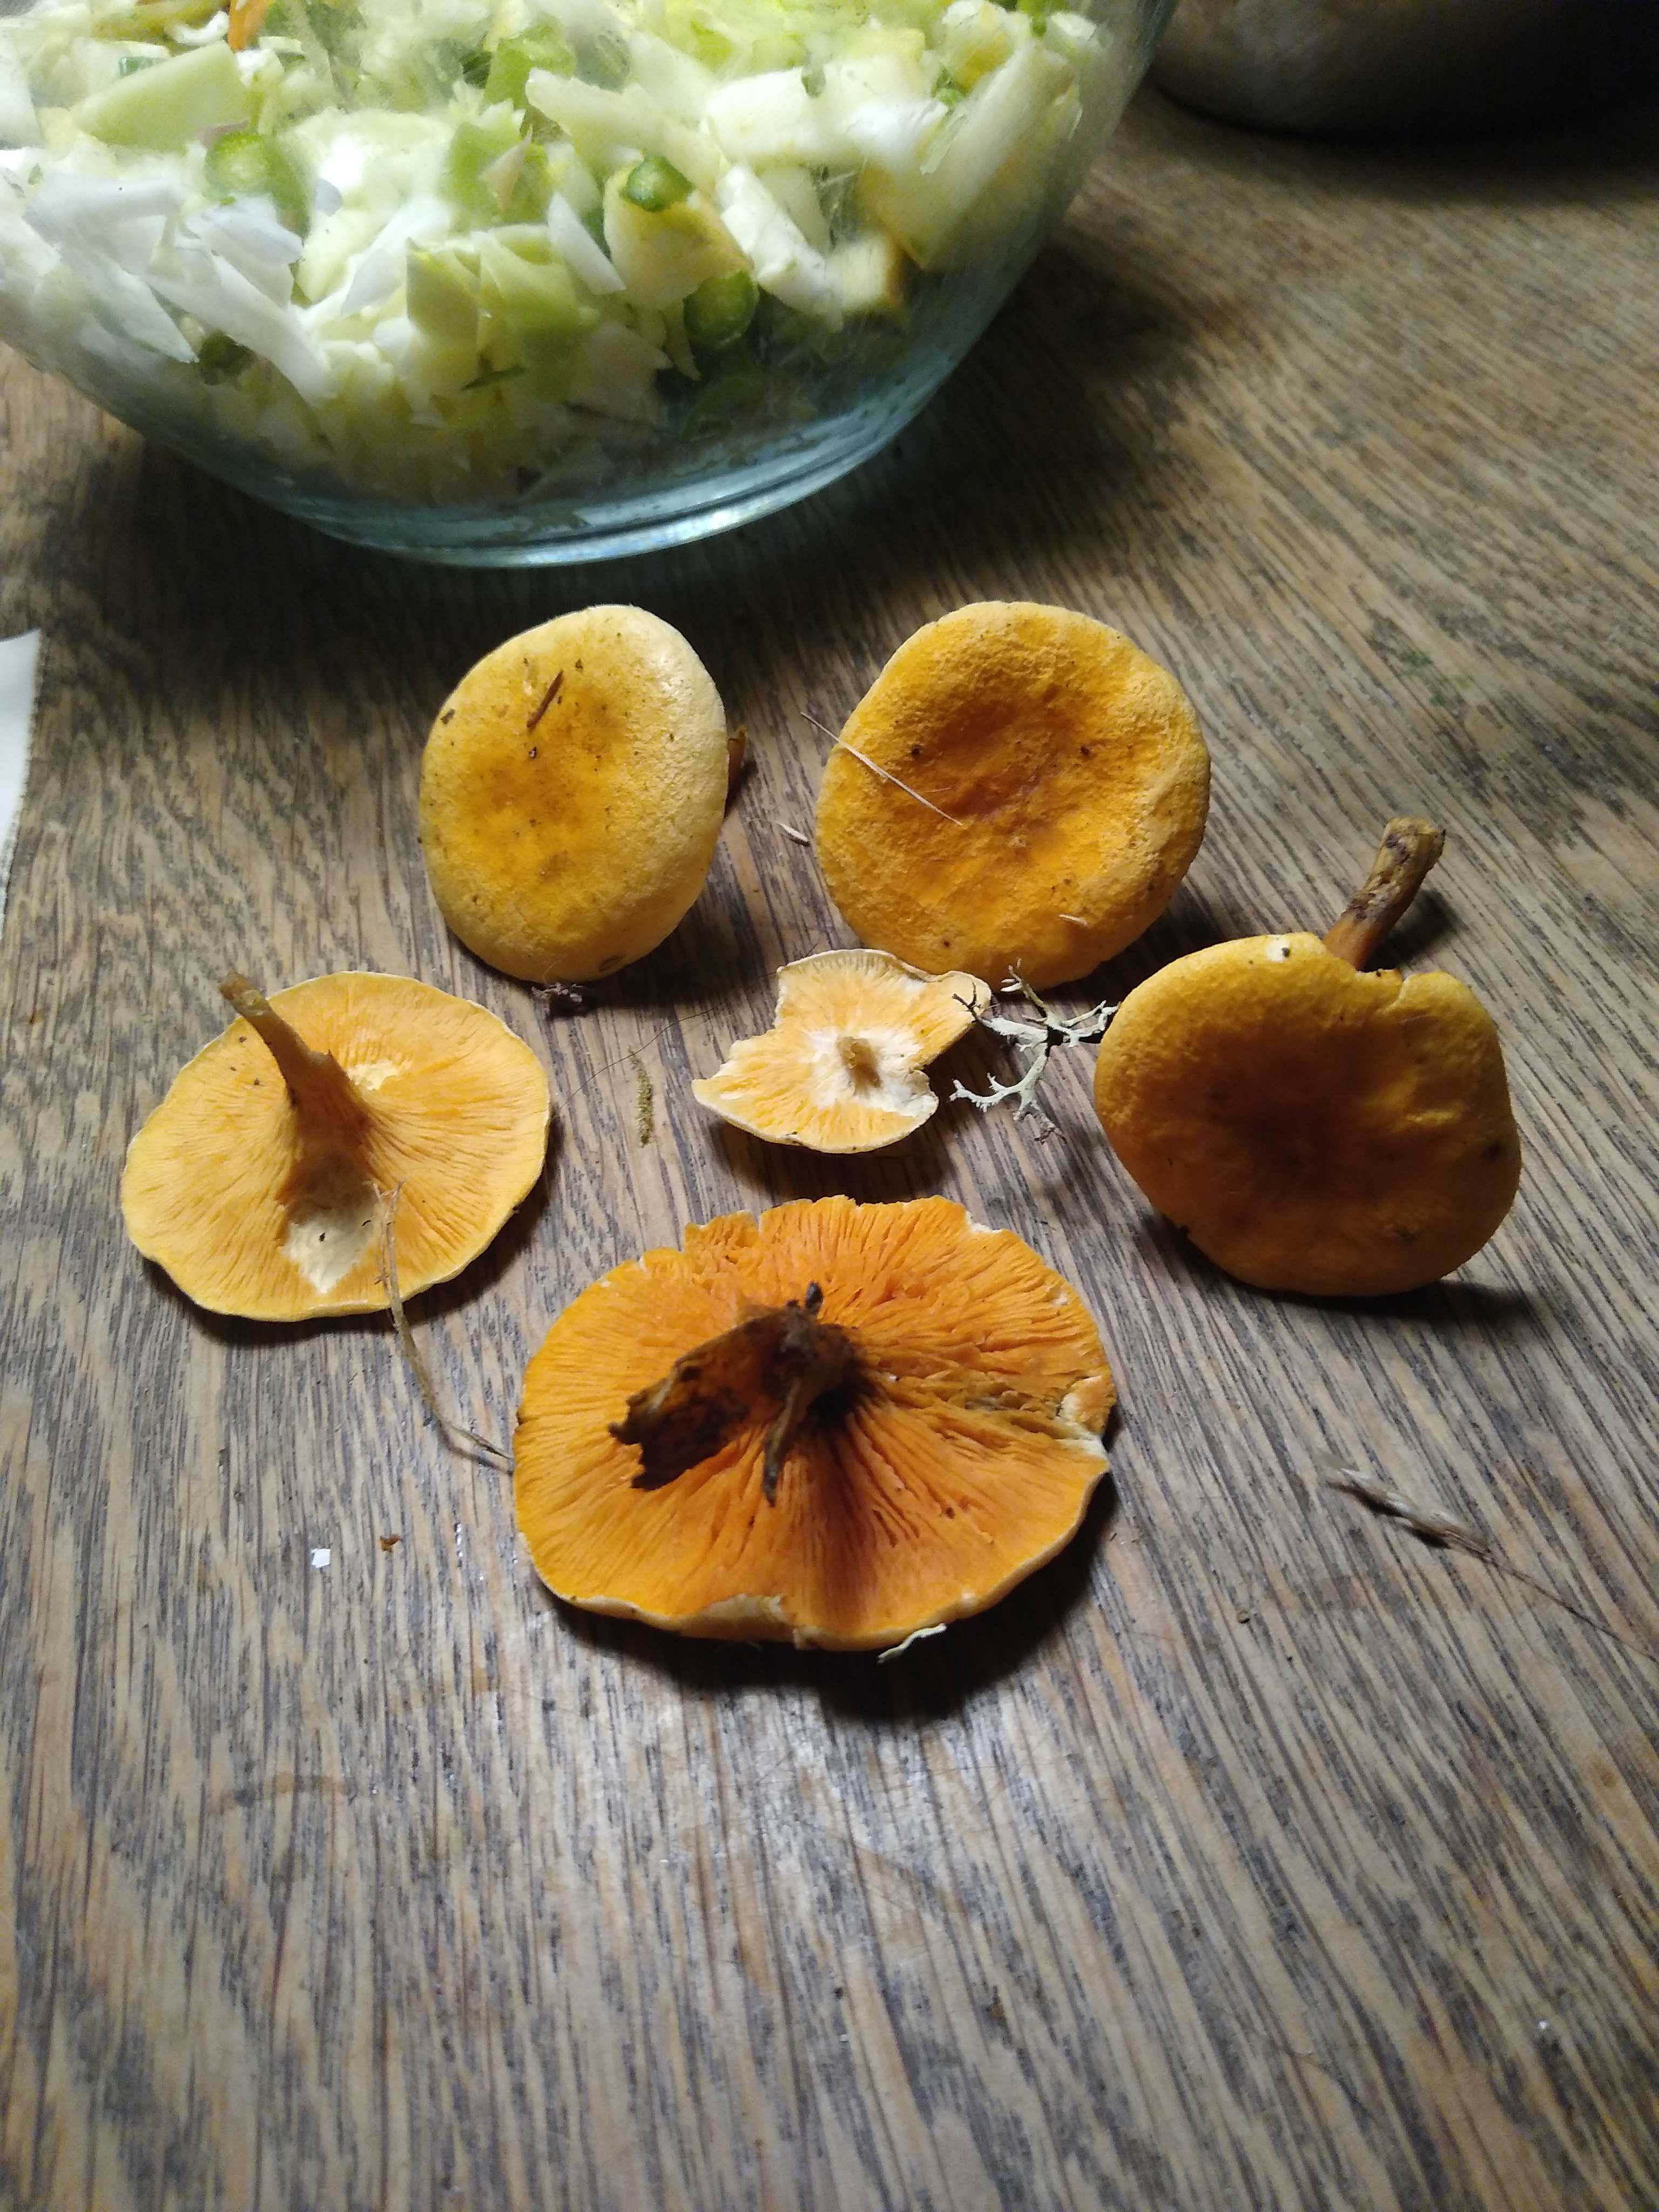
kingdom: Fungi
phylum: Basidiomycota
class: Agaricomycetes
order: Boletales
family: Hygrophoropsidaceae
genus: Hygrophoropsis
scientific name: Hygrophoropsis aurantiaca
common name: almindelig orangekantarel
